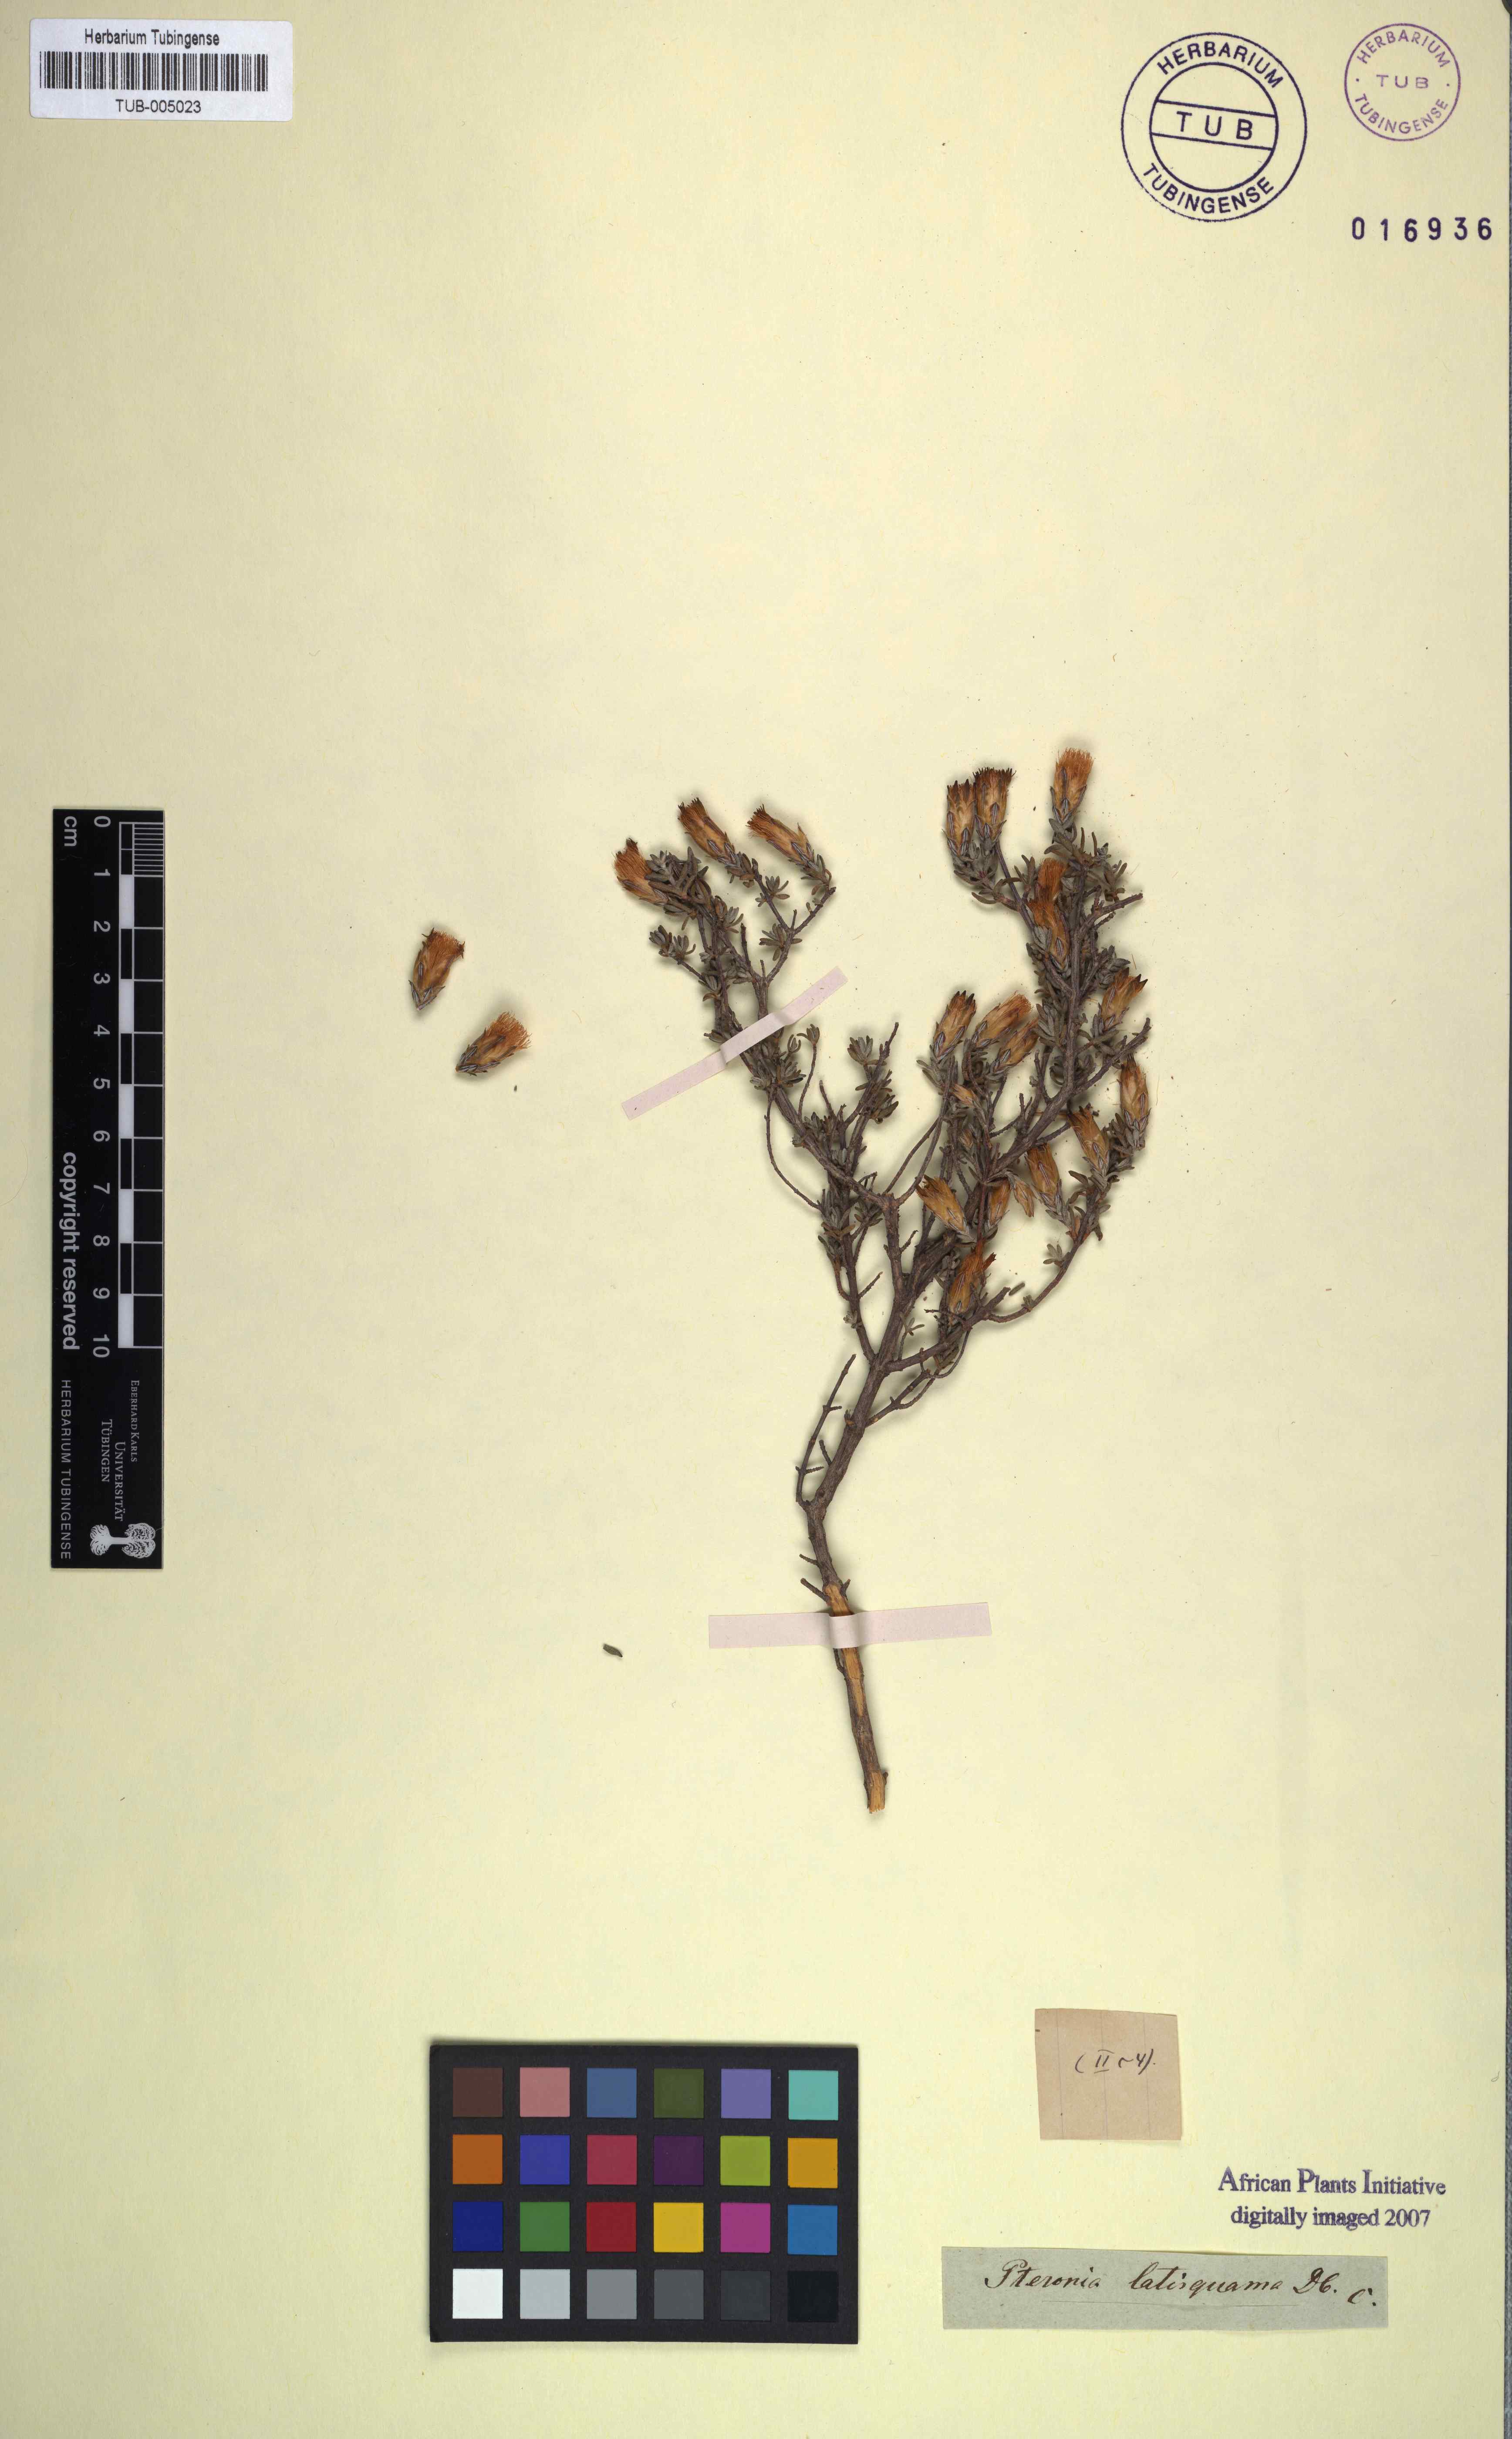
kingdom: Plantae
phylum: Tracheophyta
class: Magnoliopsida
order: Asterales
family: Asteraceae
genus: Pteronia
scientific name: Pteronia glauca
